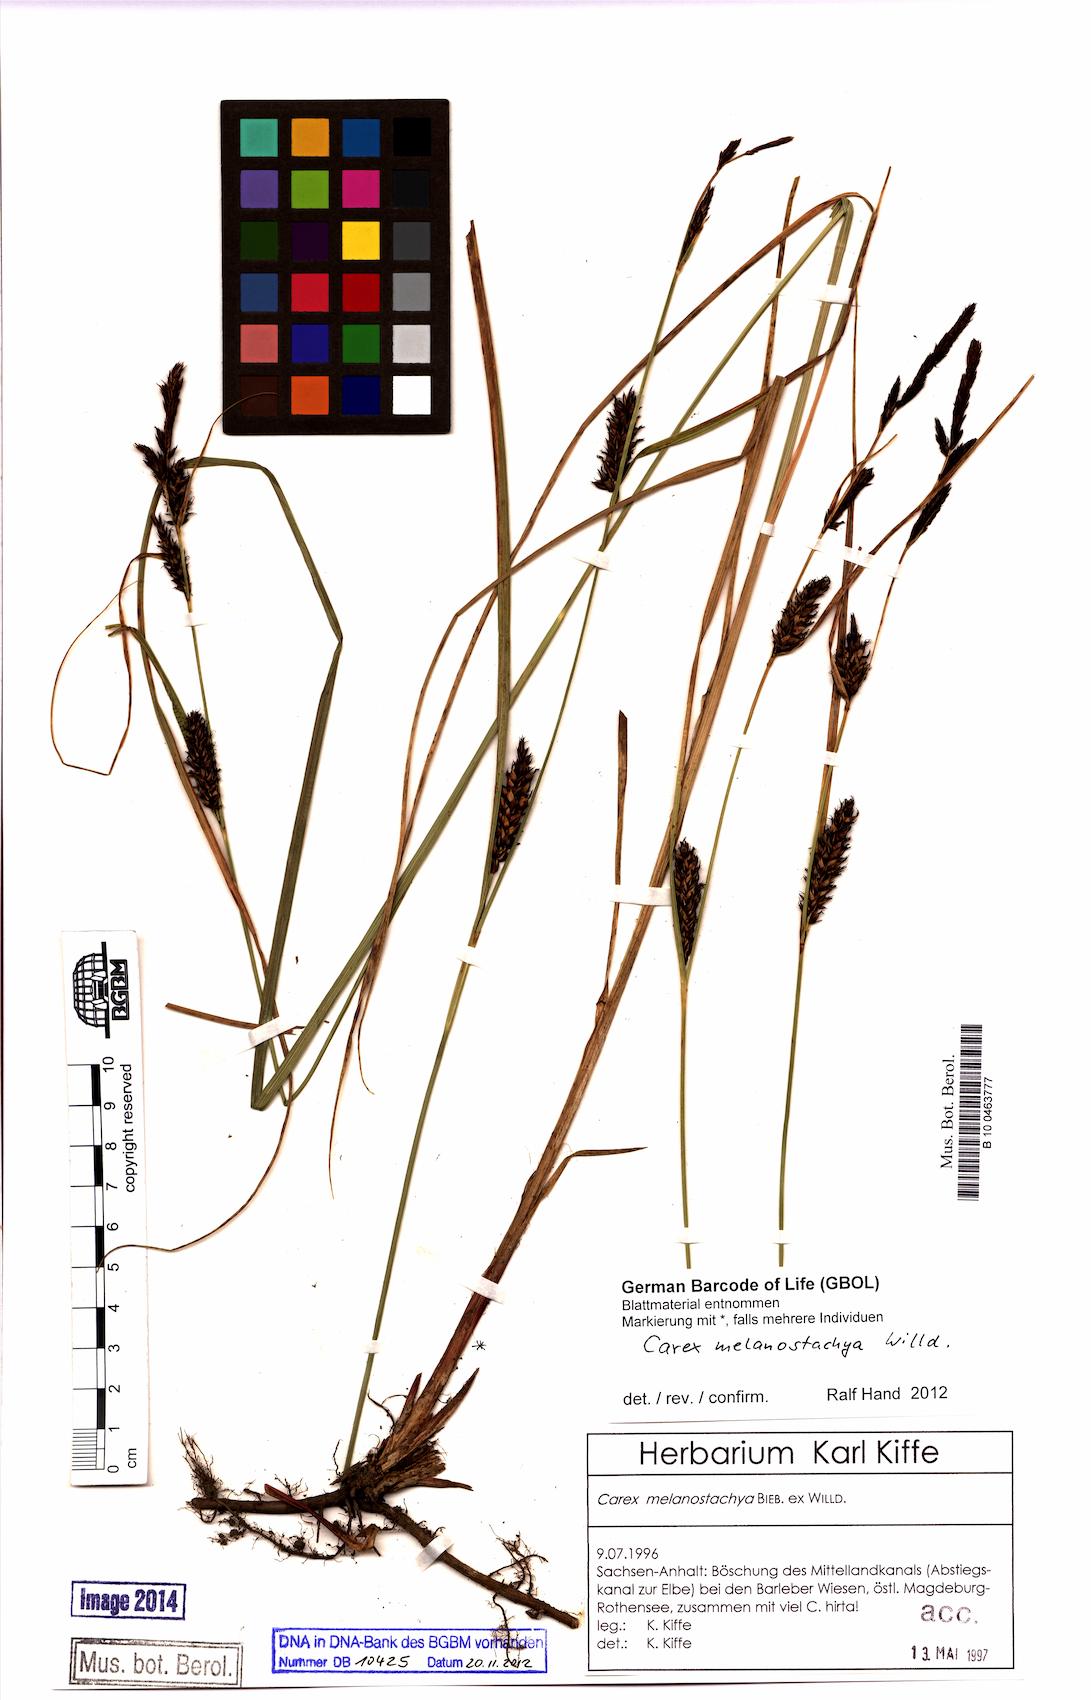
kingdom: Plantae
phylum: Tracheophyta
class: Liliopsida
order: Poales
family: Cyperaceae
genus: Carex
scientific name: Carex melanostachya
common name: Black-spiked sedge
